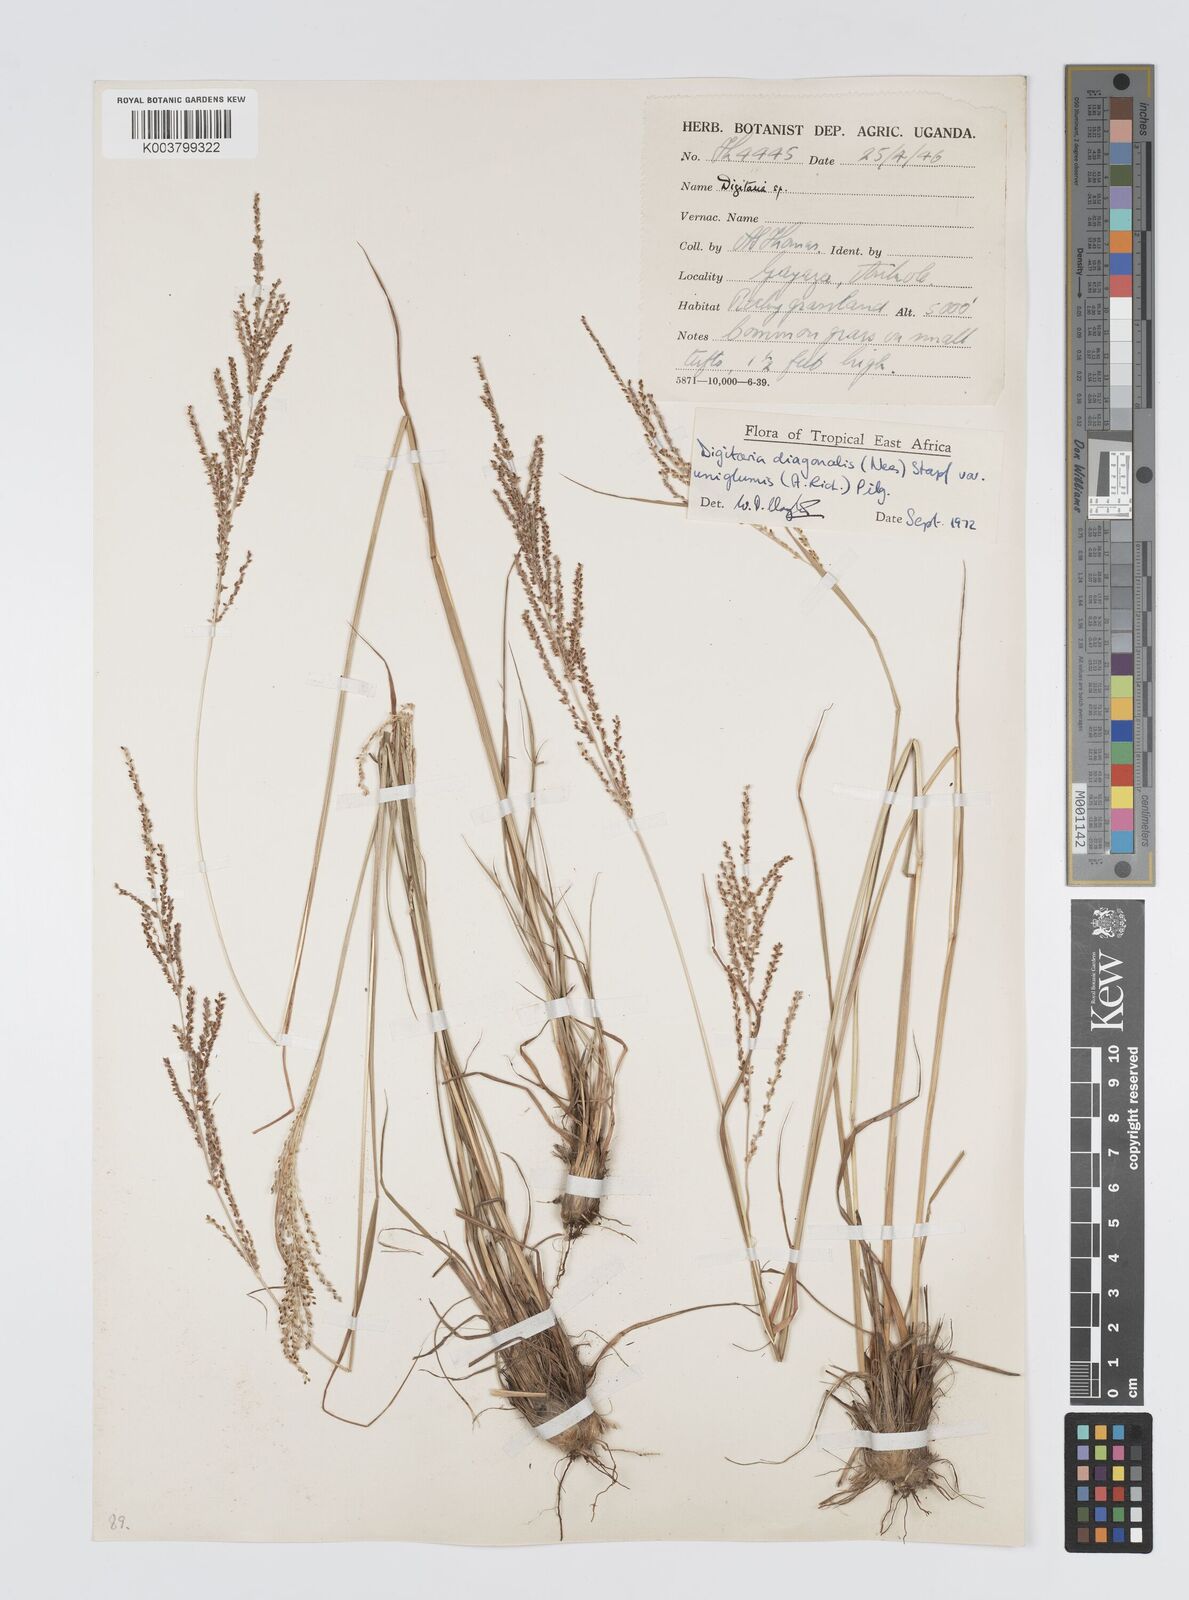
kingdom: Plantae
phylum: Tracheophyta
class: Liliopsida
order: Poales
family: Poaceae
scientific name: Poaceae
